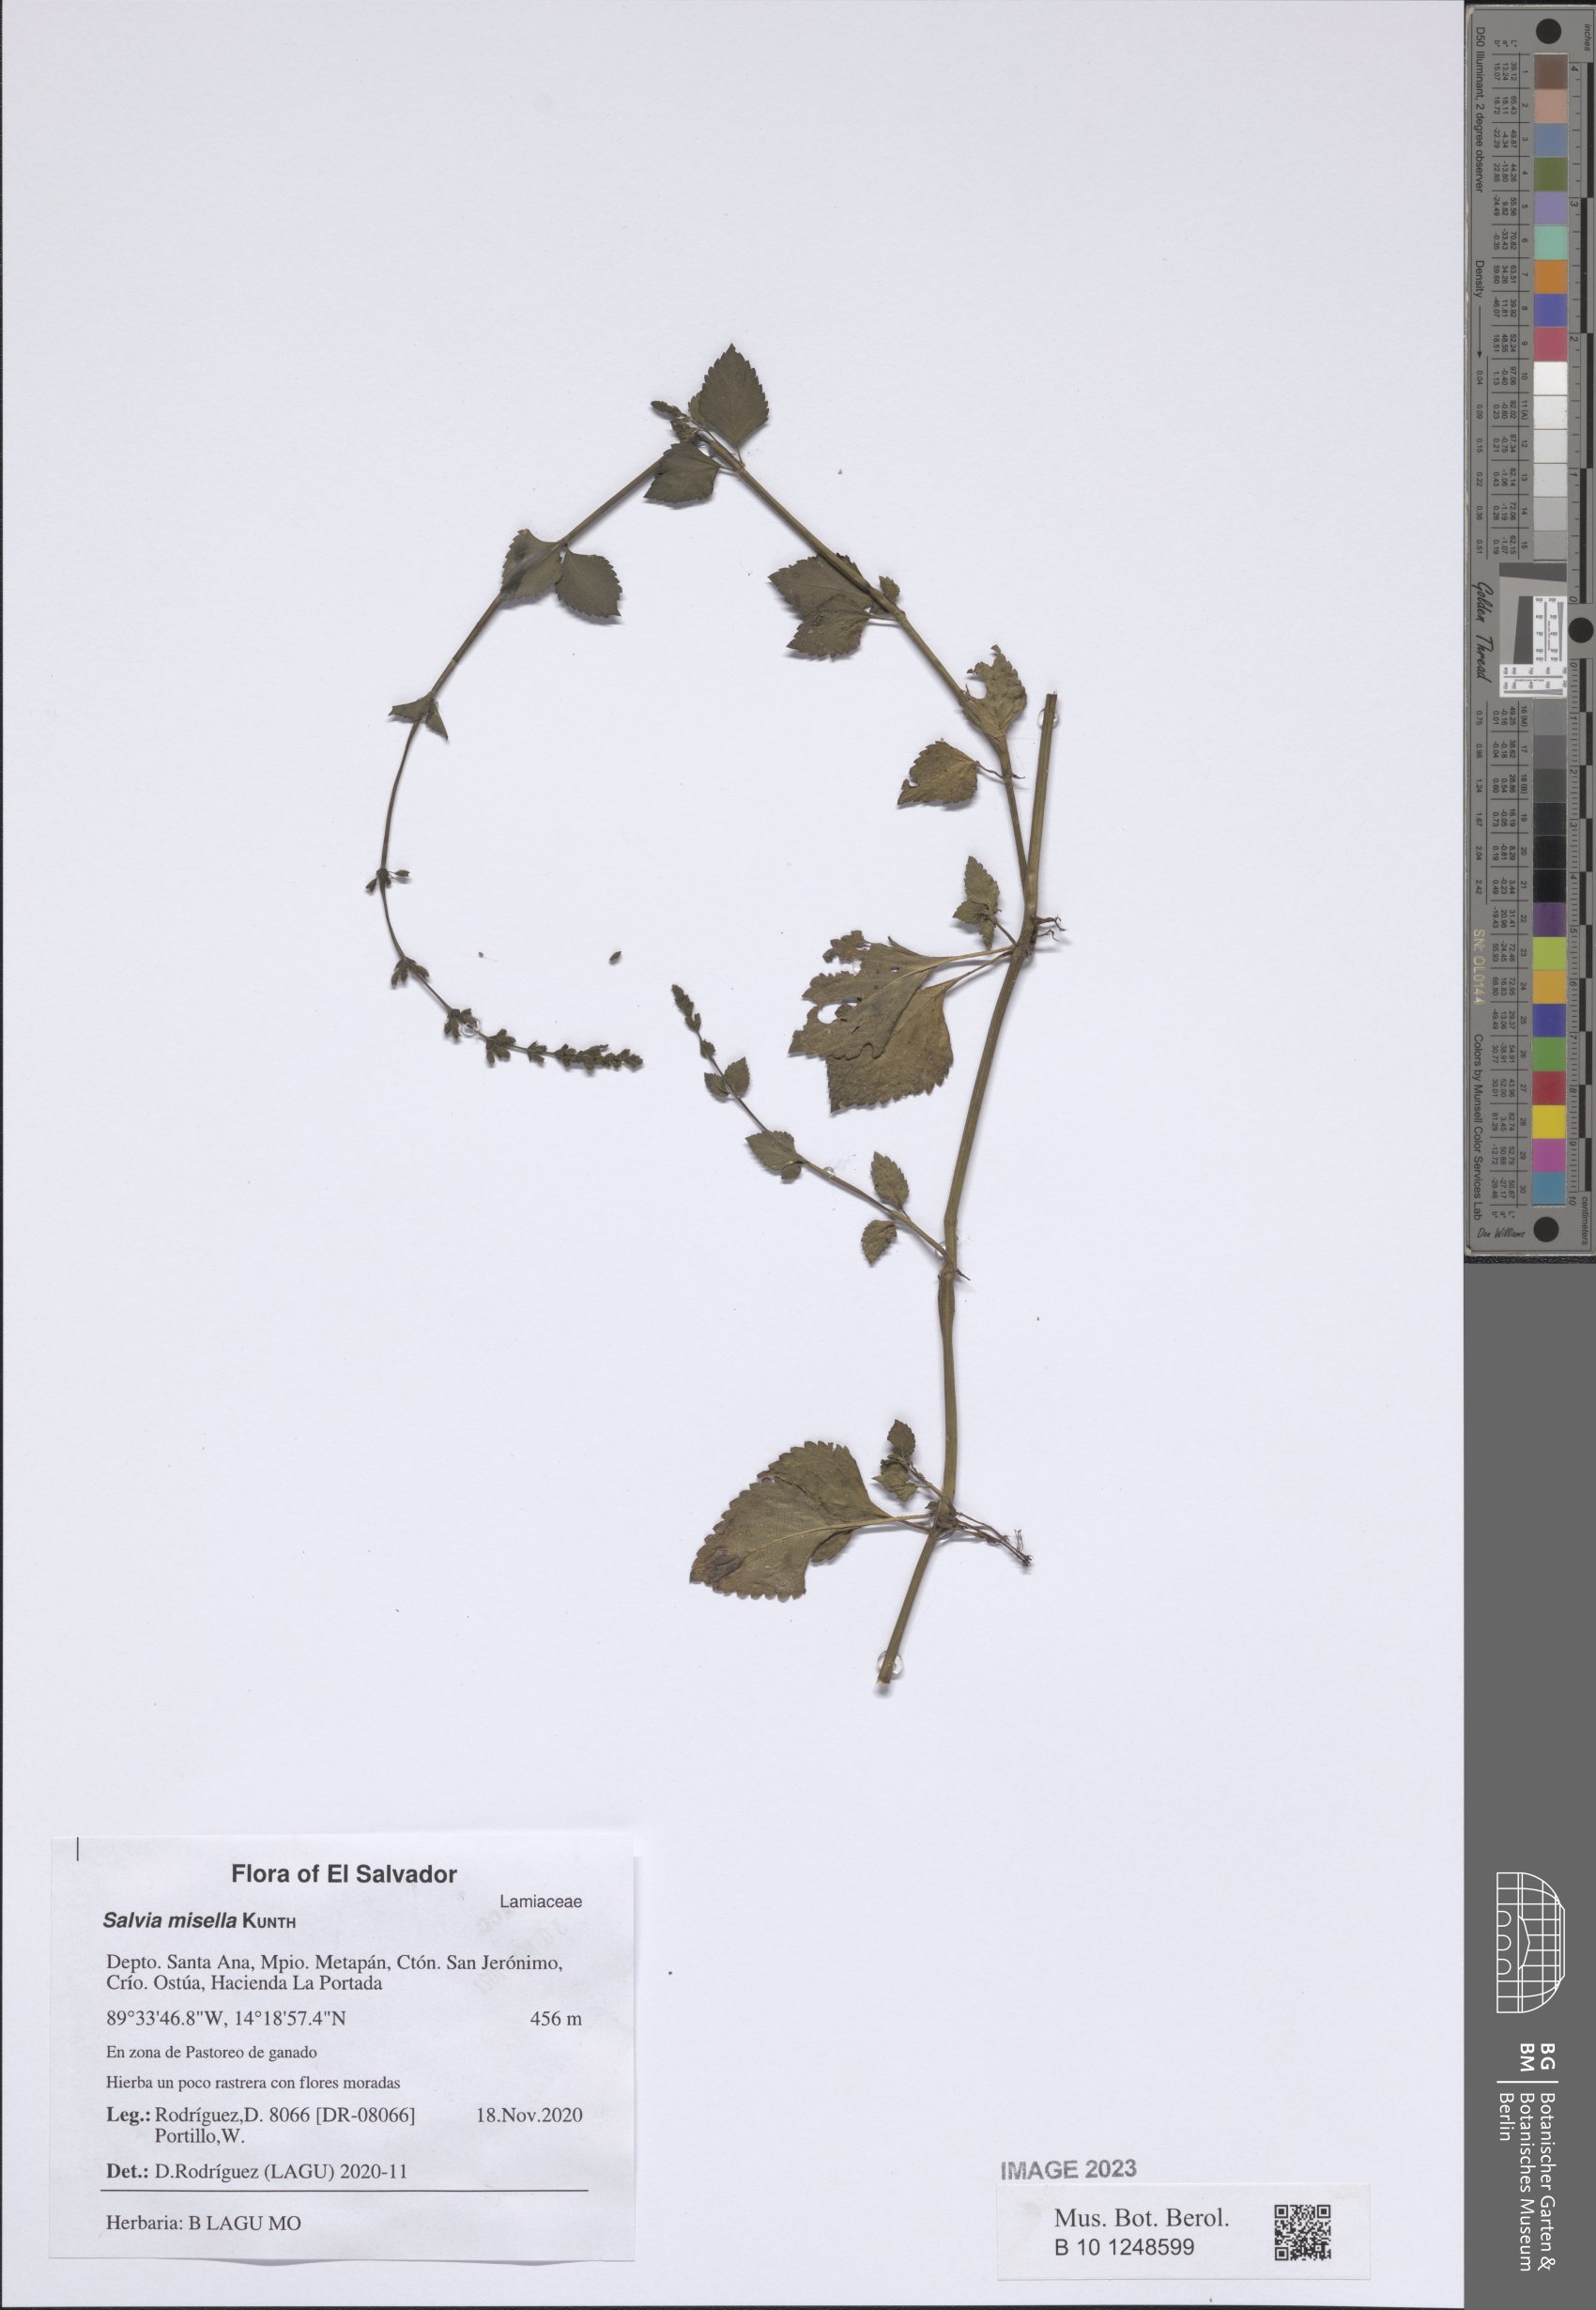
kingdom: Plantae
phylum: Tracheophyta
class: Magnoliopsida
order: Lamiales
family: Lamiaceae
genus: Salvia
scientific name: Salvia misella
